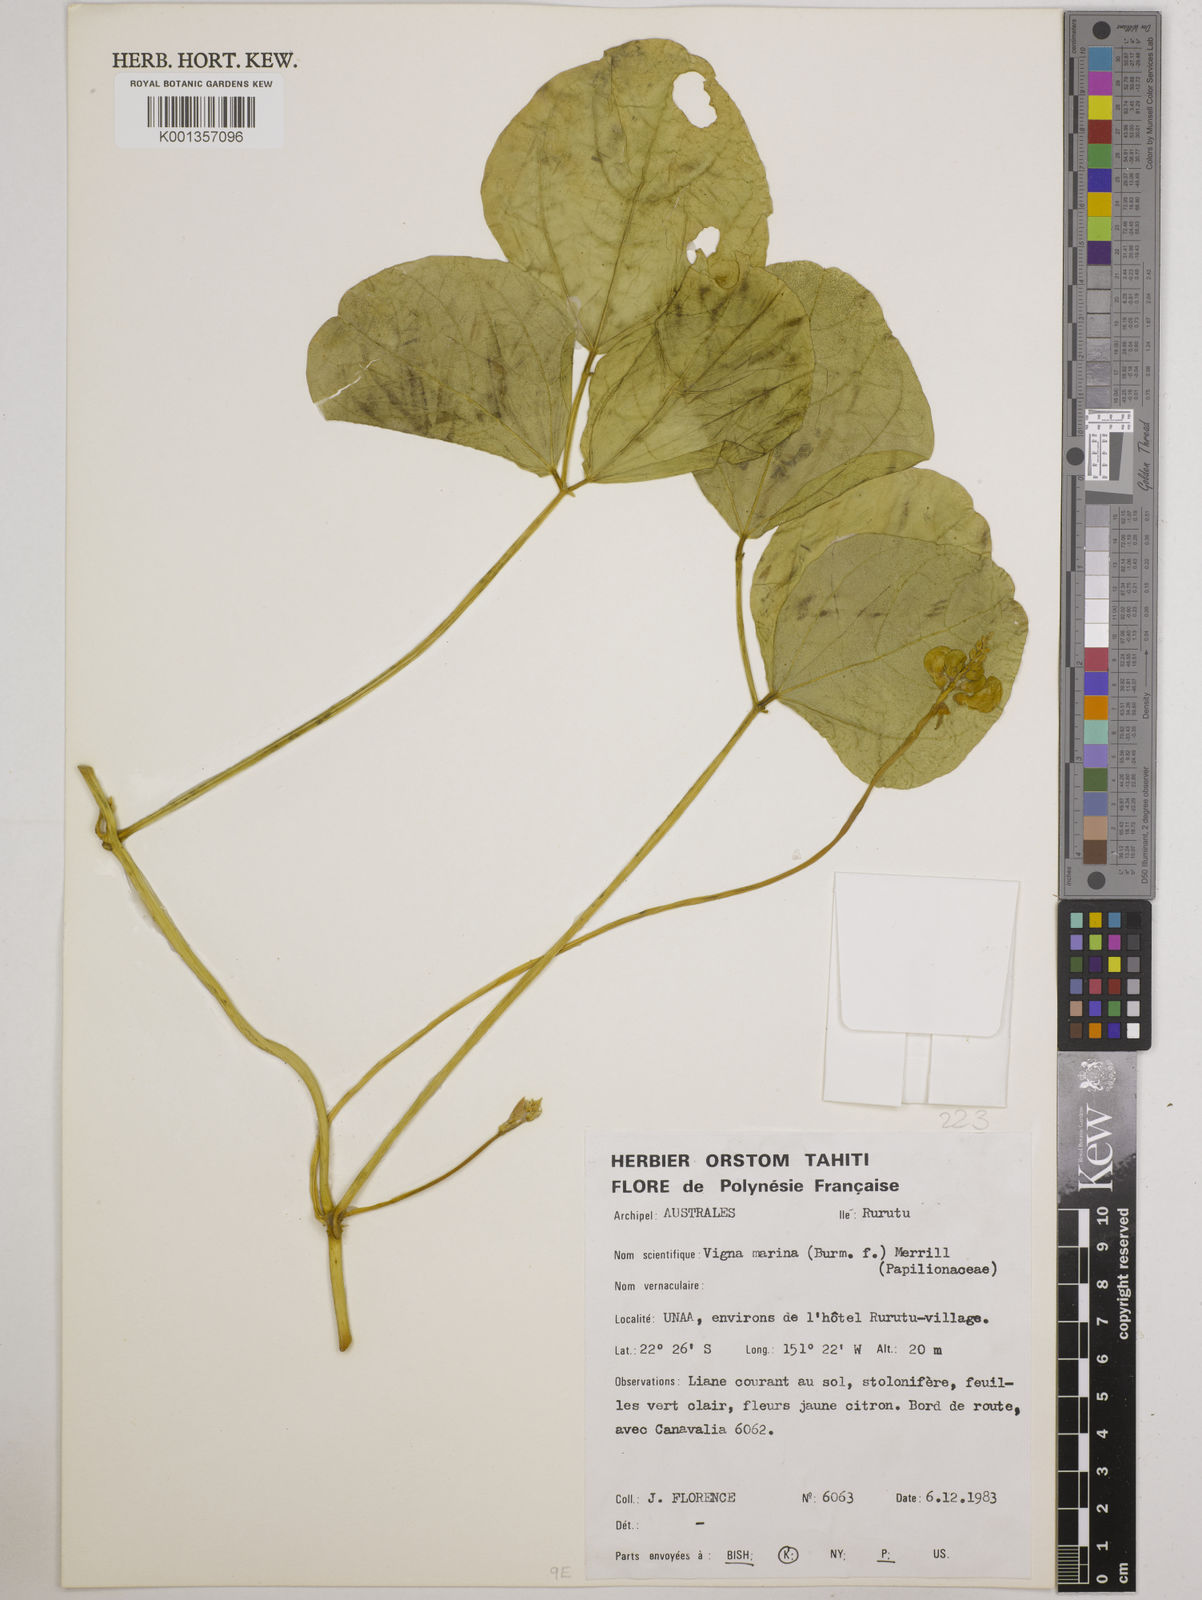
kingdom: Plantae
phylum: Tracheophyta
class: Magnoliopsida
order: Fabales
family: Fabaceae
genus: Vigna
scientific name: Vigna marina
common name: Dune-bean
